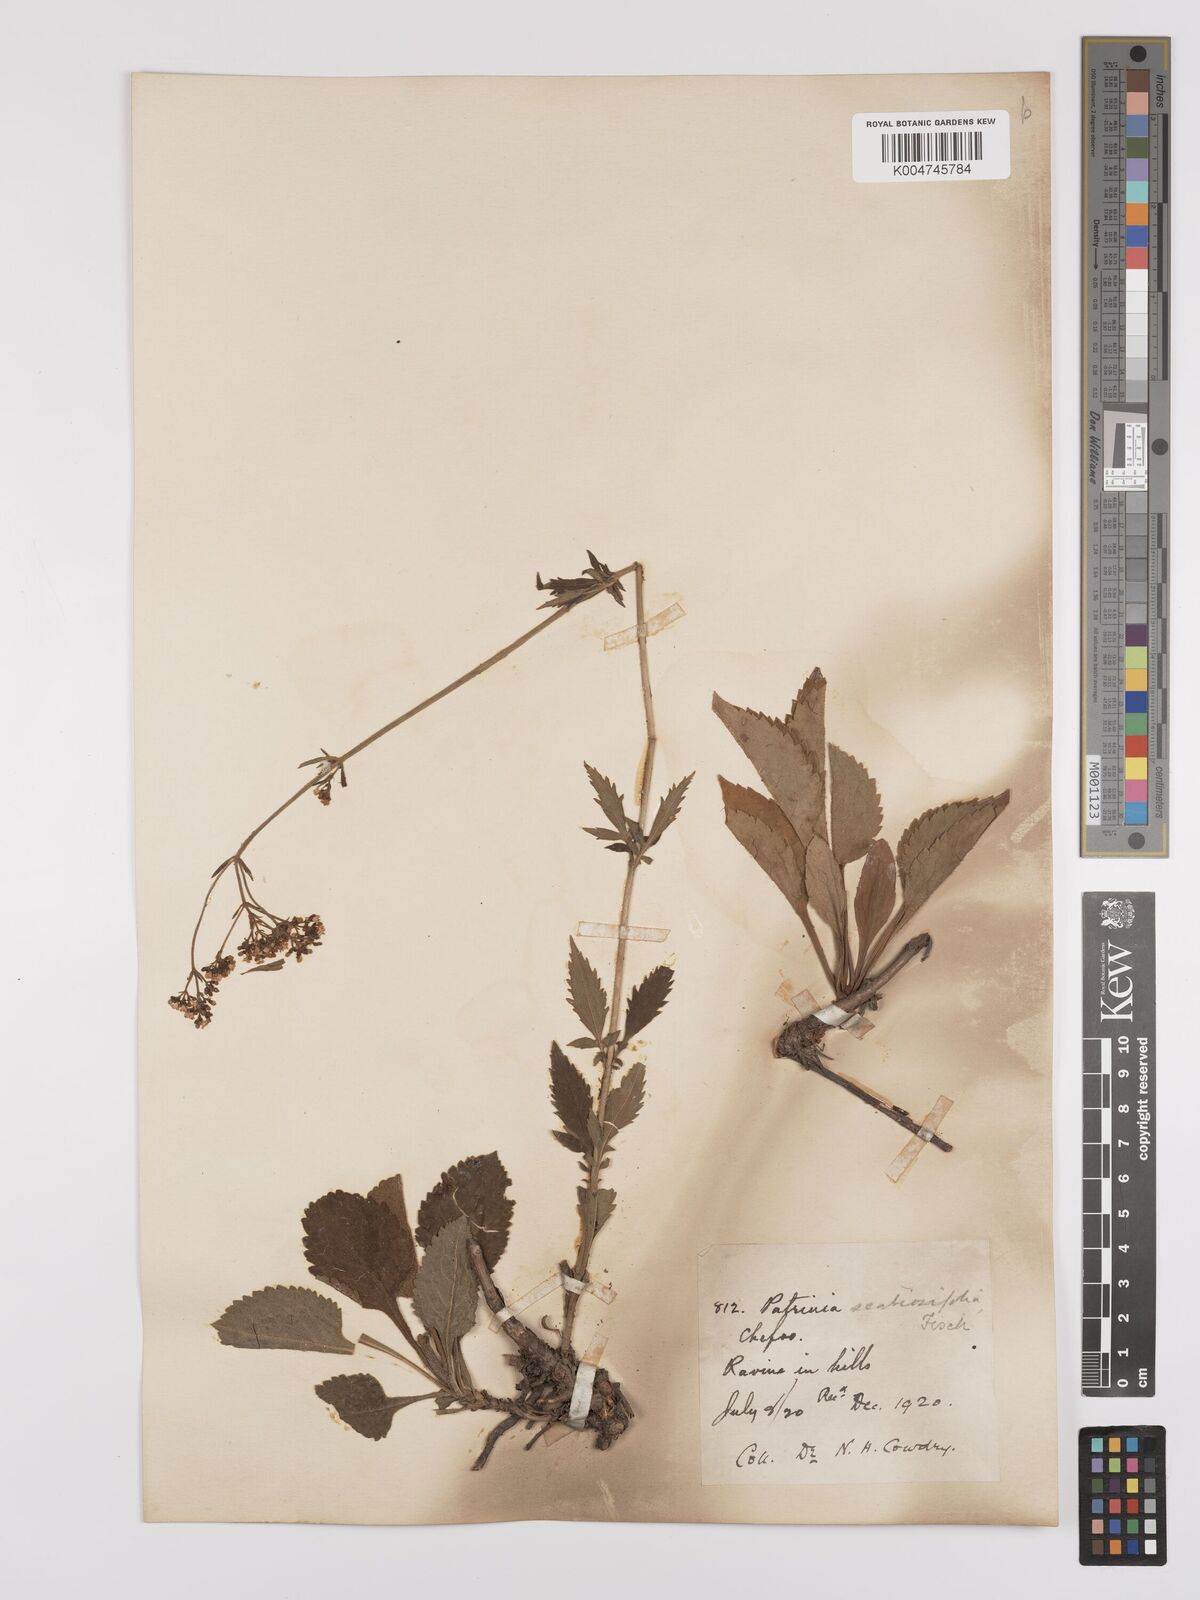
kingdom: Plantae
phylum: Tracheophyta
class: Magnoliopsida
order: Dipsacales
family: Caprifoliaceae
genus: Patrinia
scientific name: Patrinia scabiosifolia
